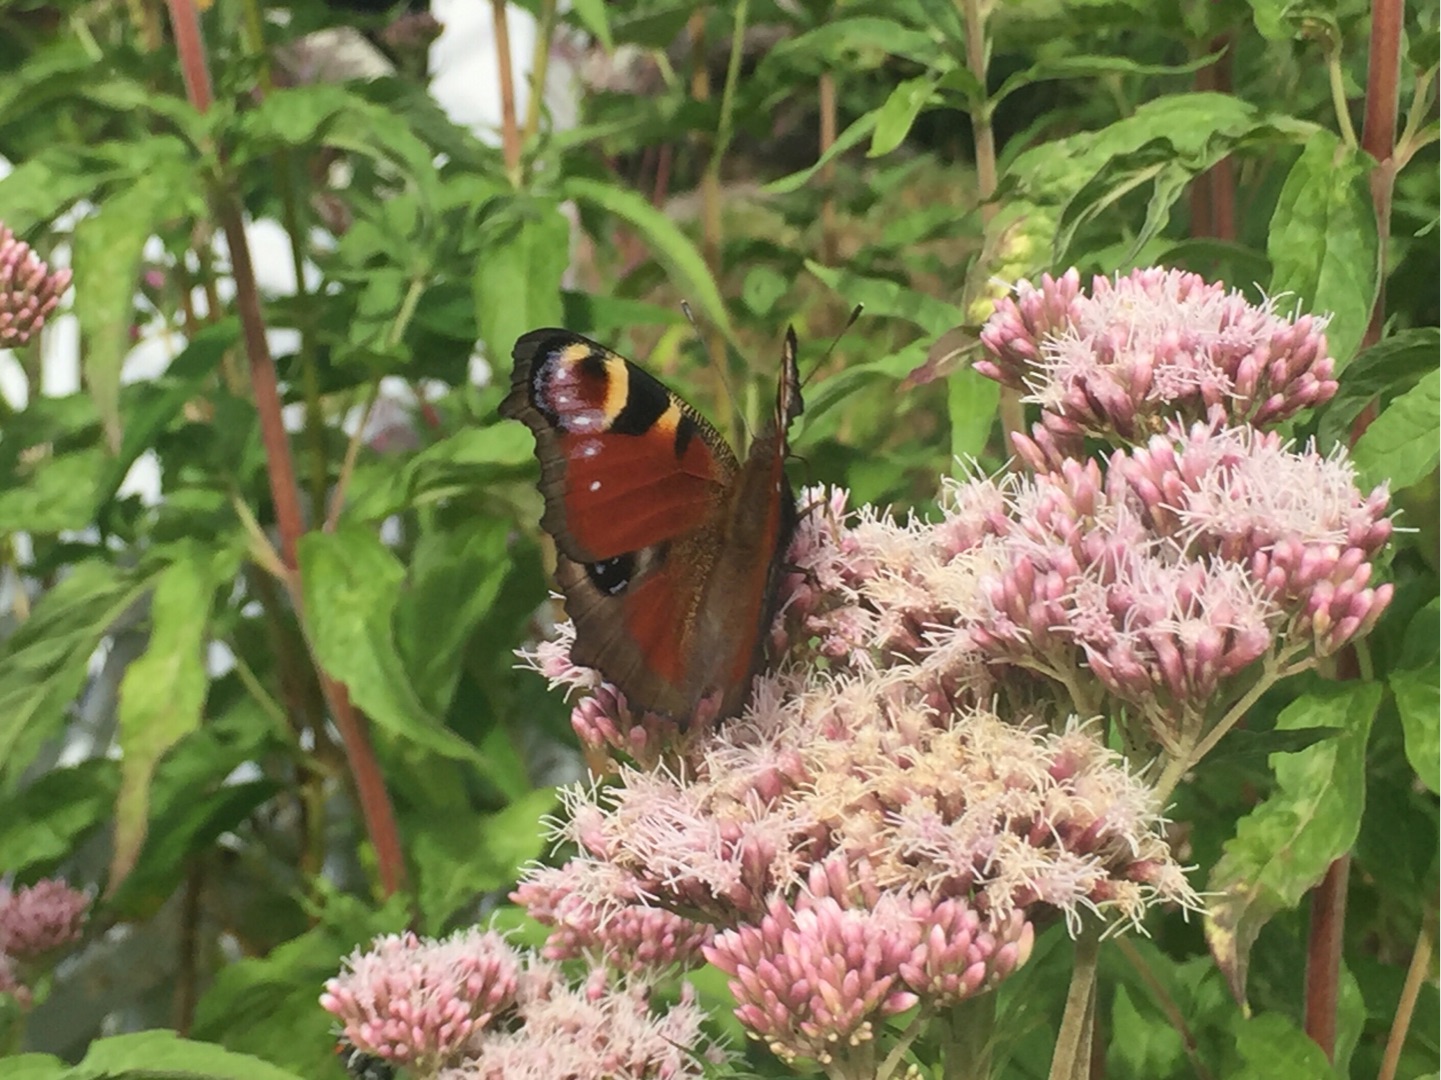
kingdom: Animalia
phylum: Arthropoda
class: Insecta
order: Lepidoptera
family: Nymphalidae
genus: Aglais
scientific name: Aglais io
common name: Dagpåfugleøje
